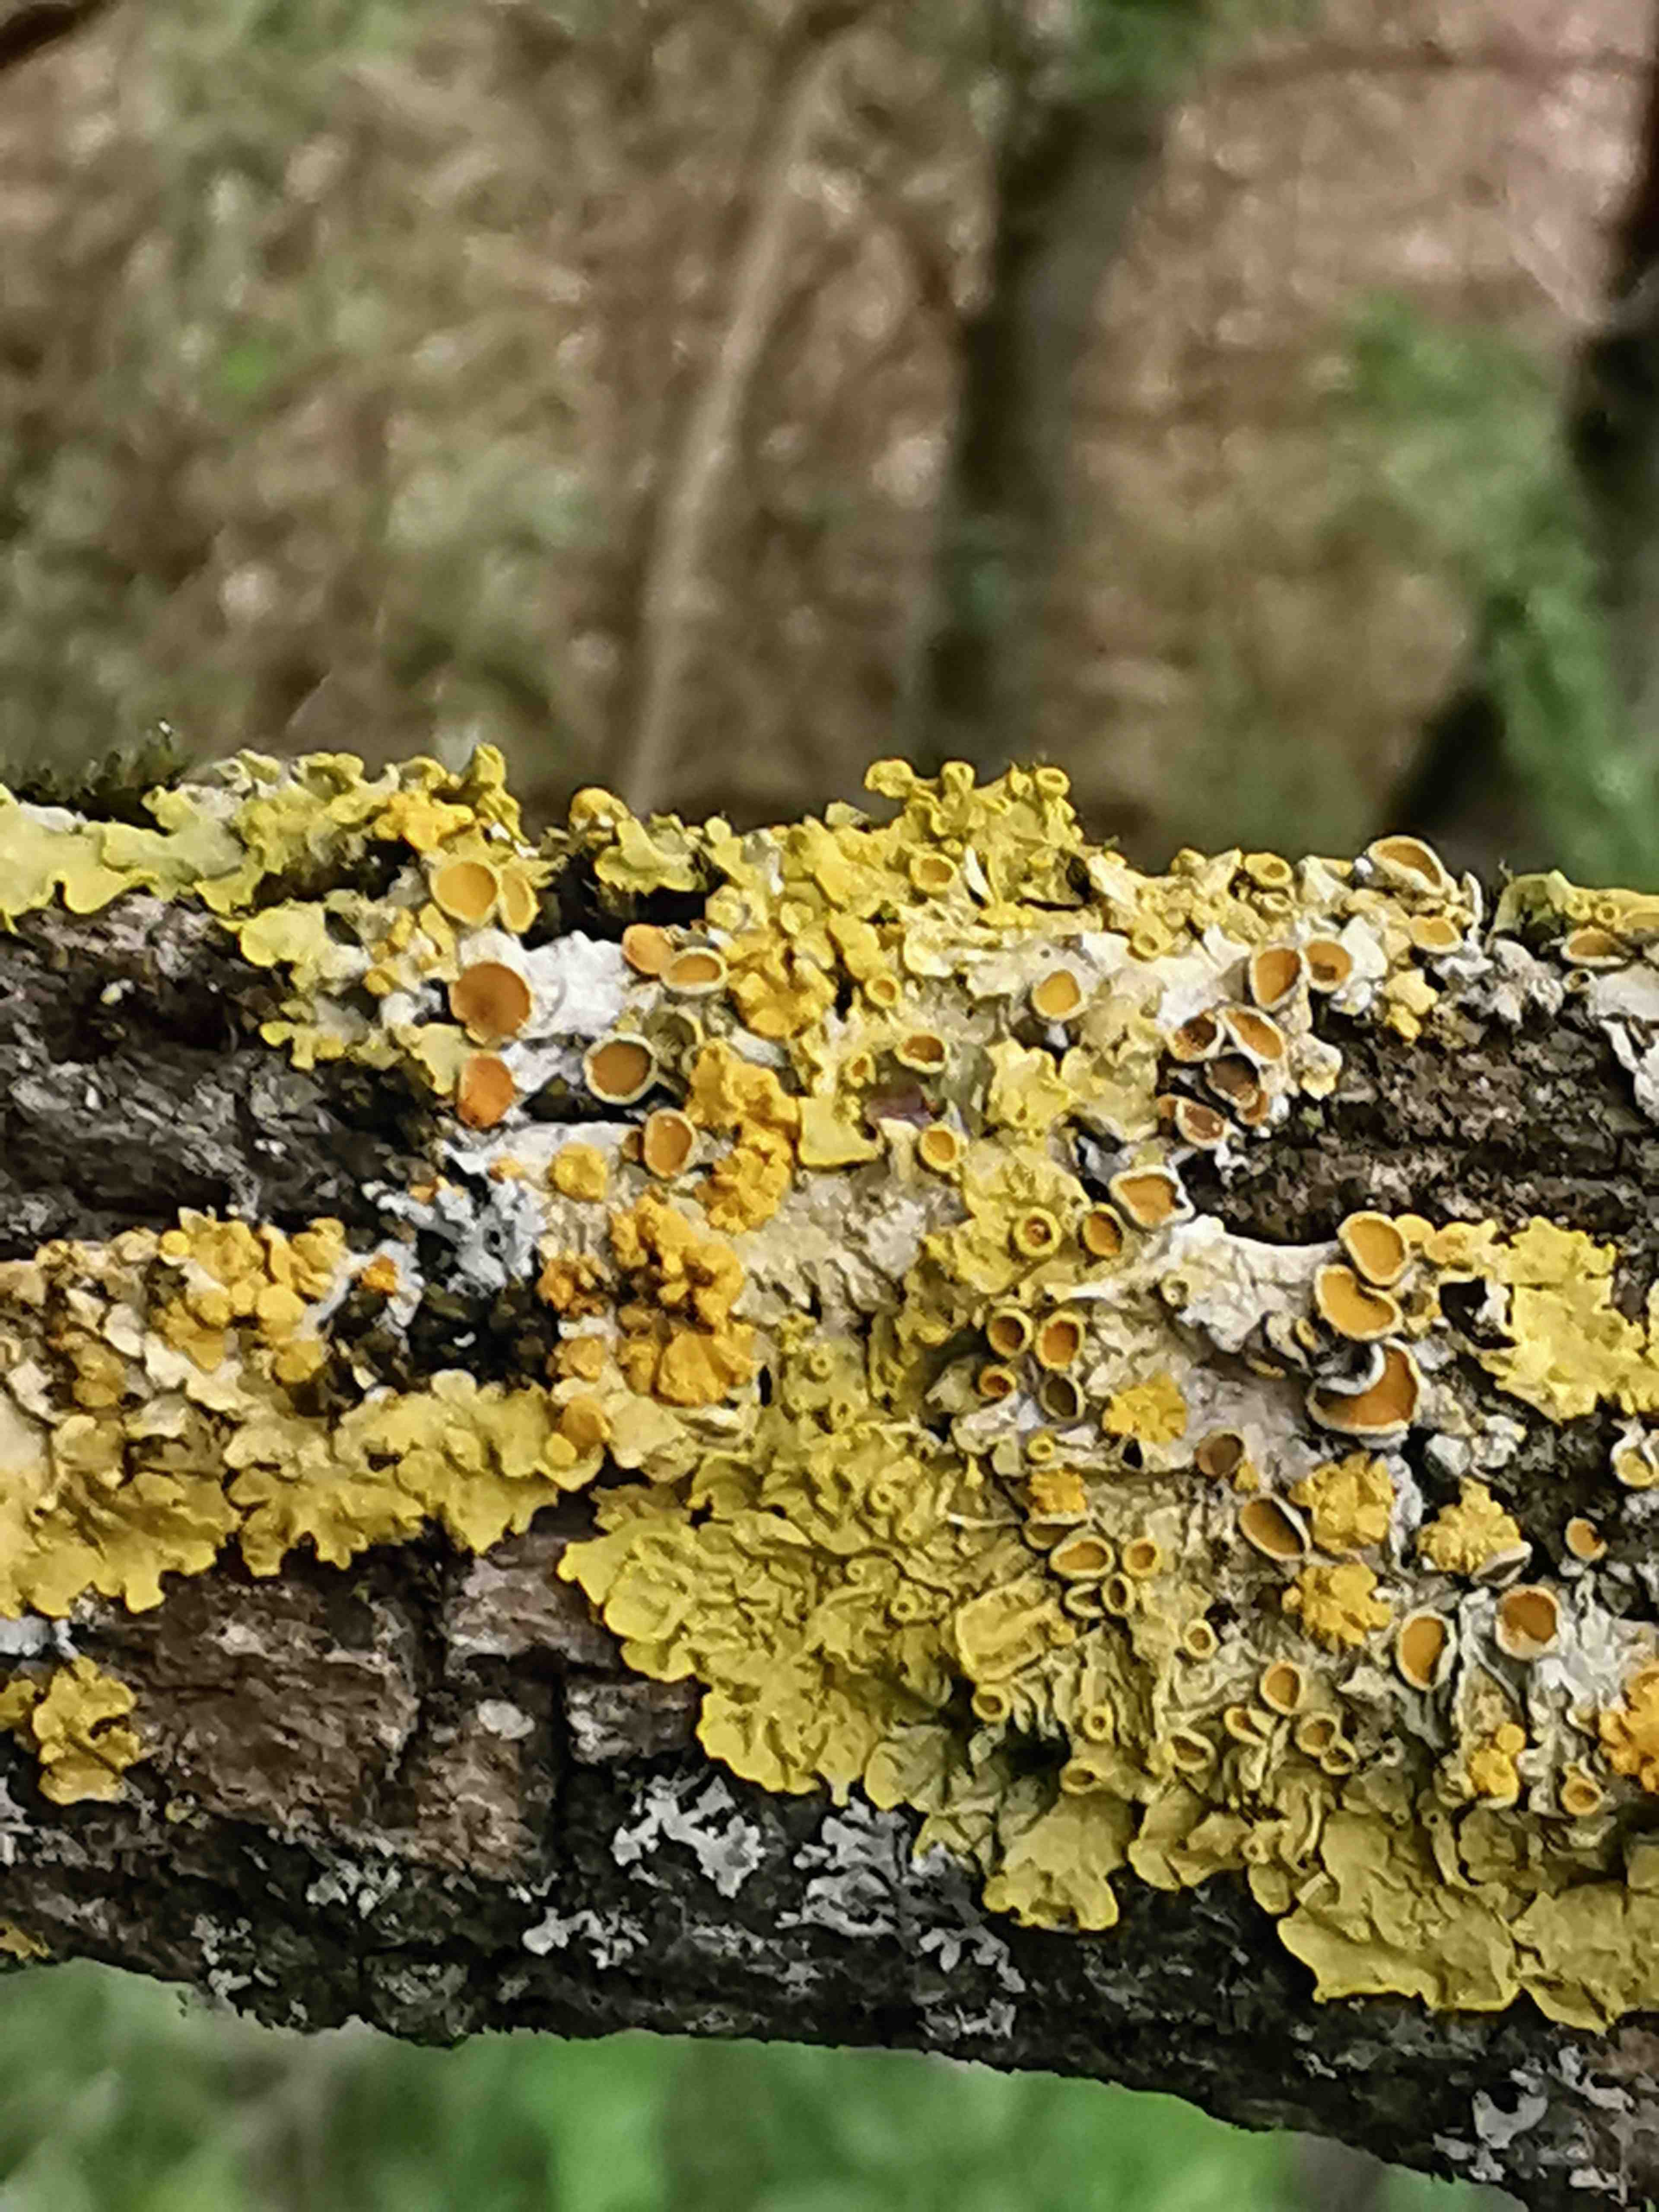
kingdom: Fungi
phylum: Ascomycota
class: Lecanoromycetes
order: Teloschistales
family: Teloschistaceae
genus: Xanthoria
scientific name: Xanthoria parietina
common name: almindelig væggelav
